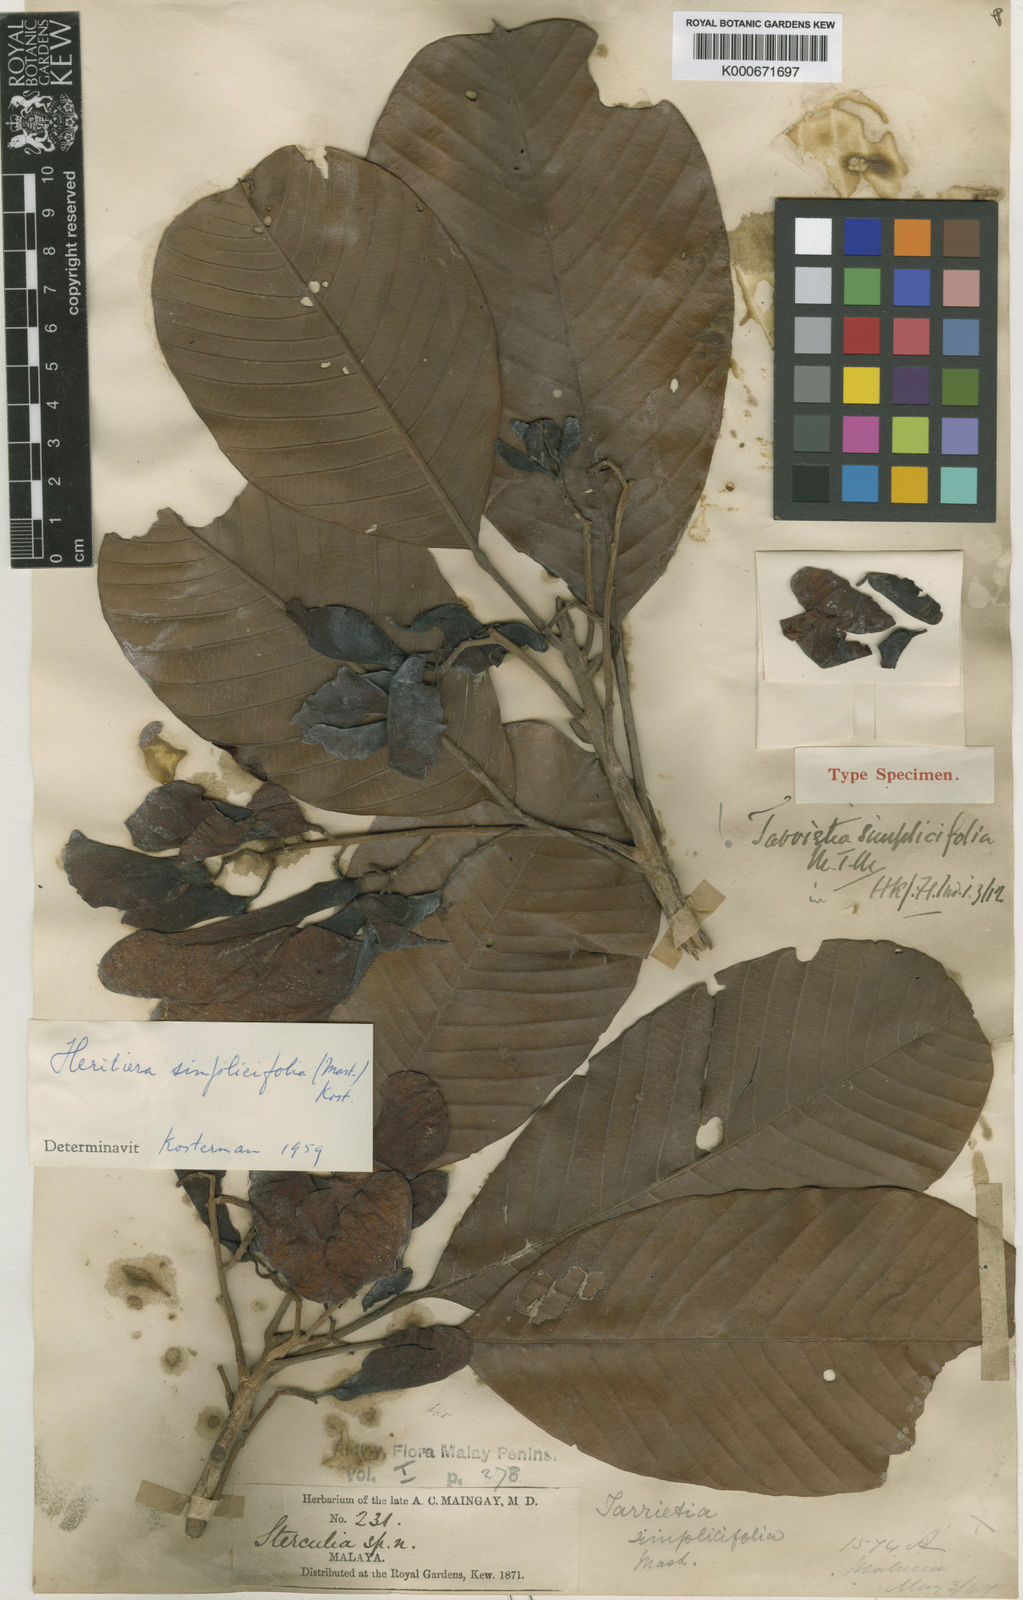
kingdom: Plantae
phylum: Tracheophyta
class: Magnoliopsida
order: Malvales
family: Malvaceae
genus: Heritiera
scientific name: Heritiera simplicifolia
